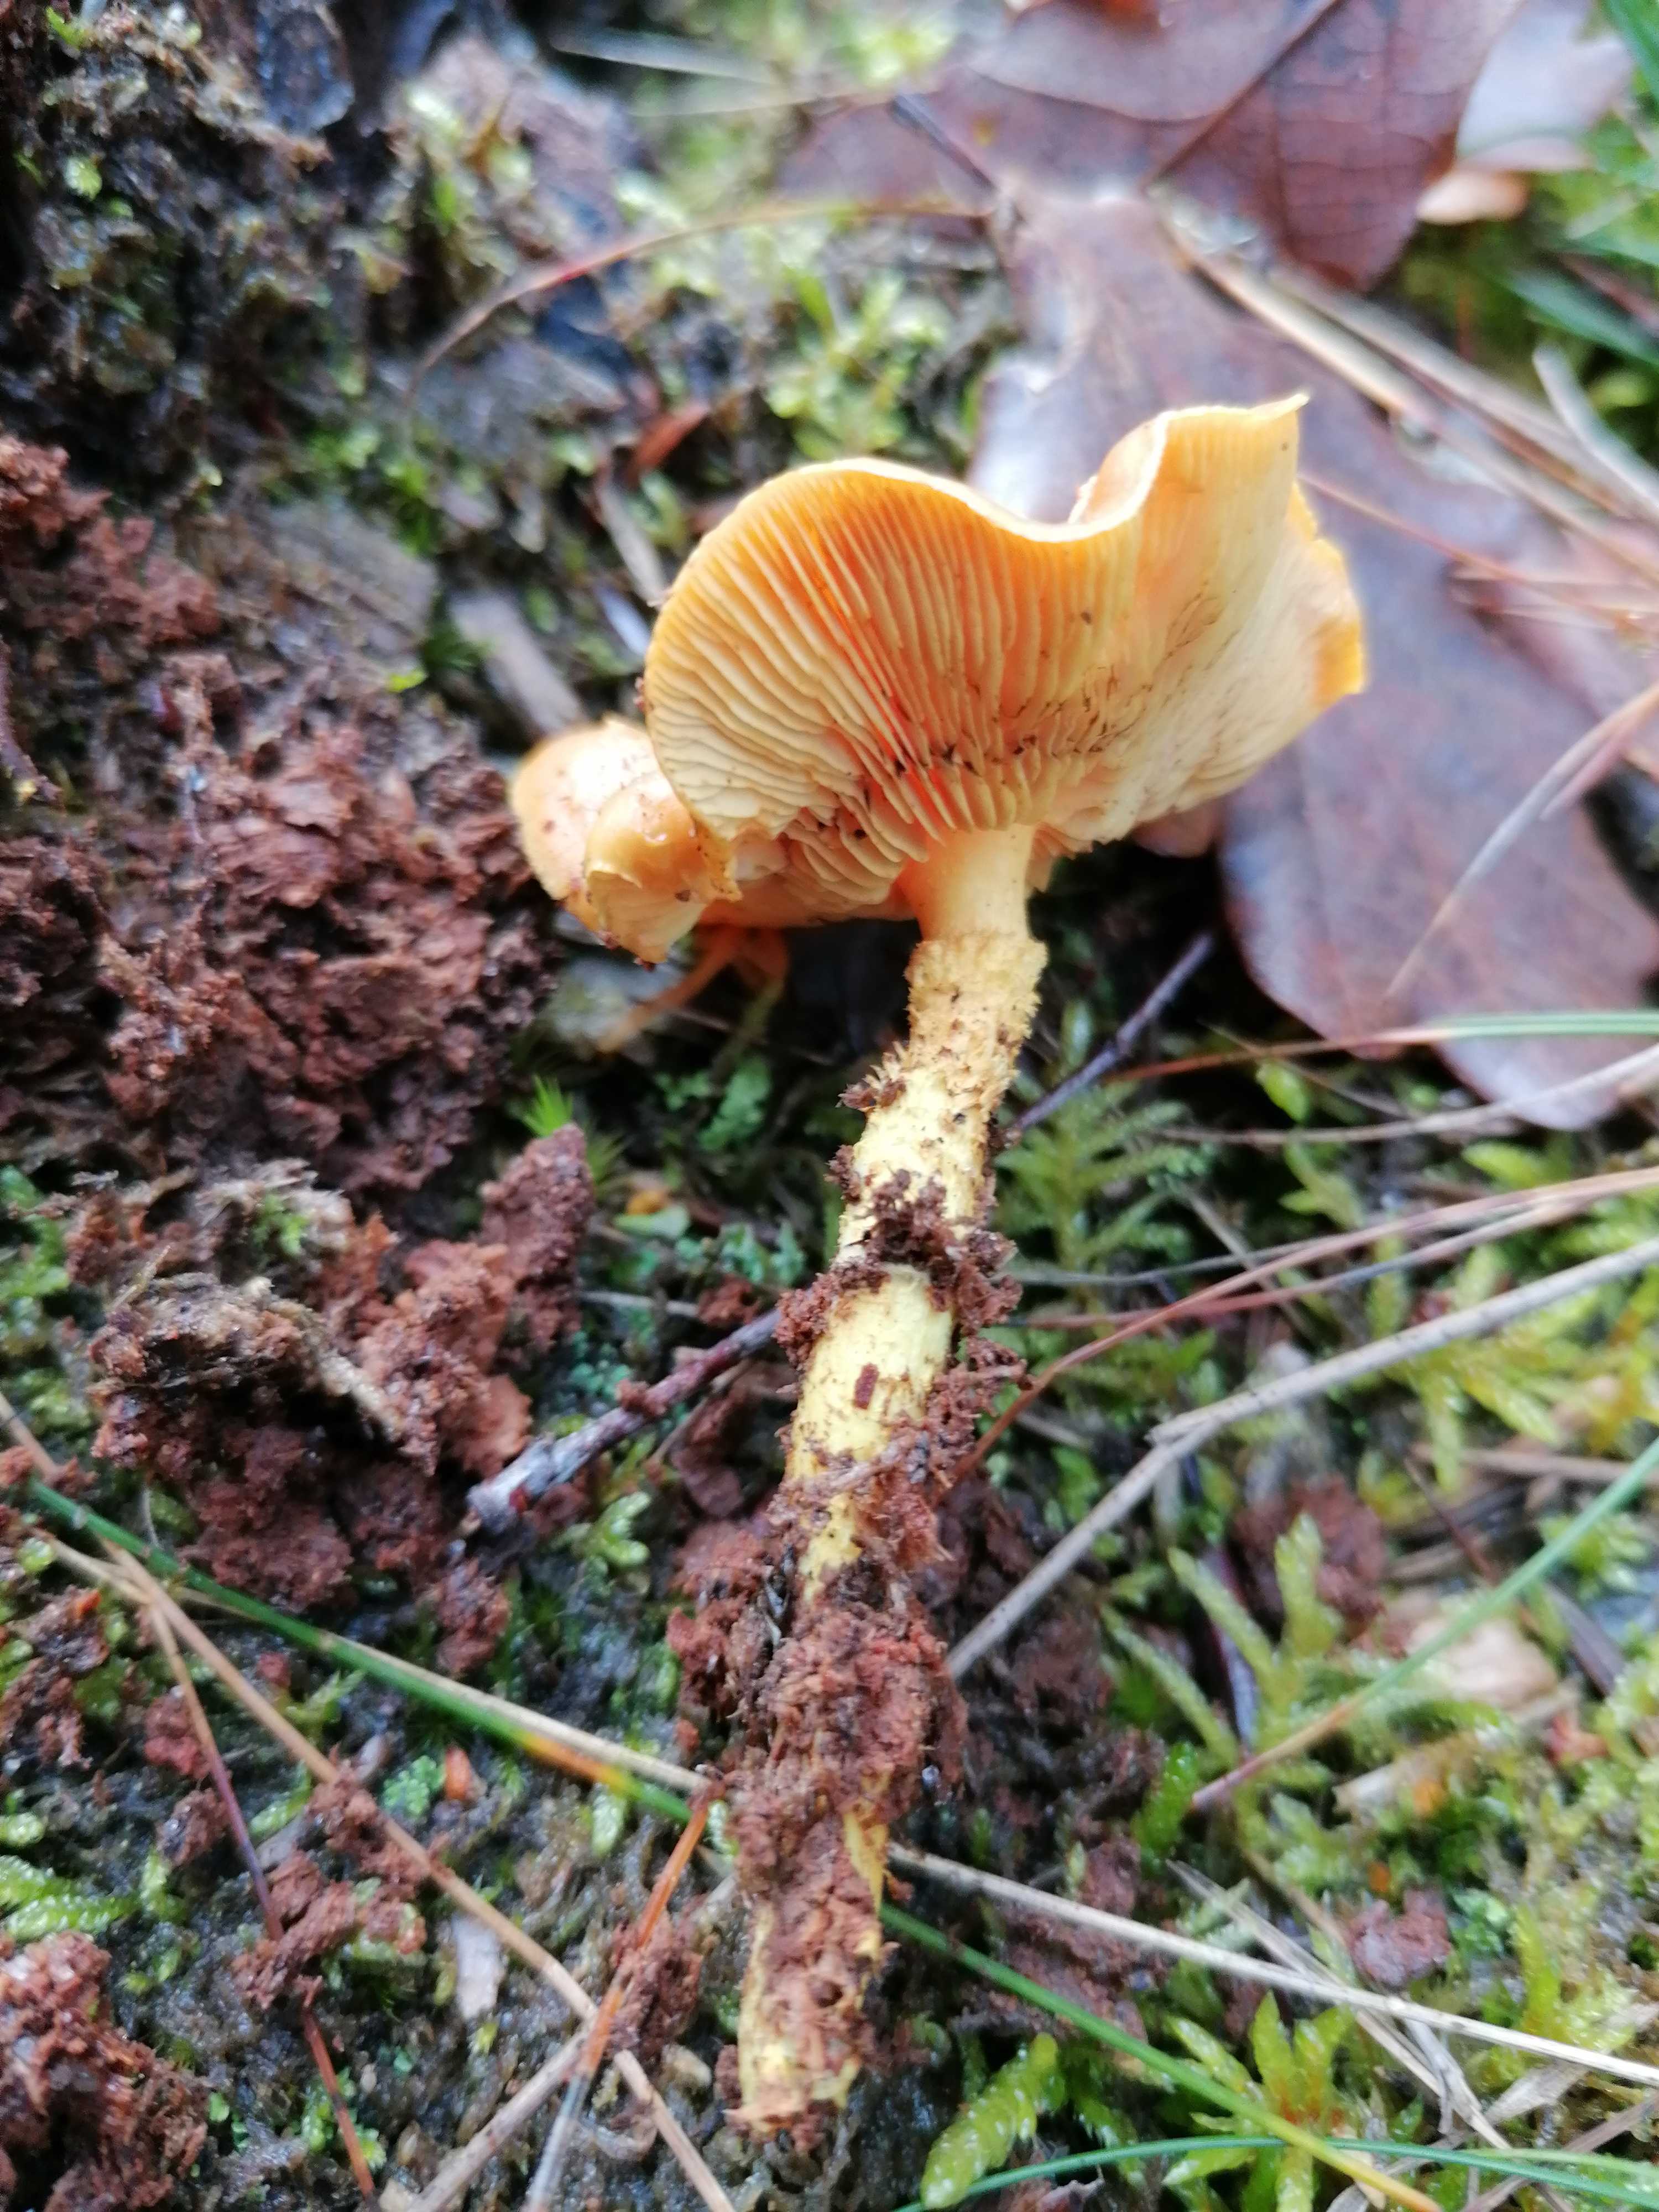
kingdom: Fungi
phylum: Basidiomycota
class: Agaricomycetes
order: Agaricales
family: Strophariaceae
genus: Pholiota
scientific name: Pholiota flammans
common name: flamme-skælhat
